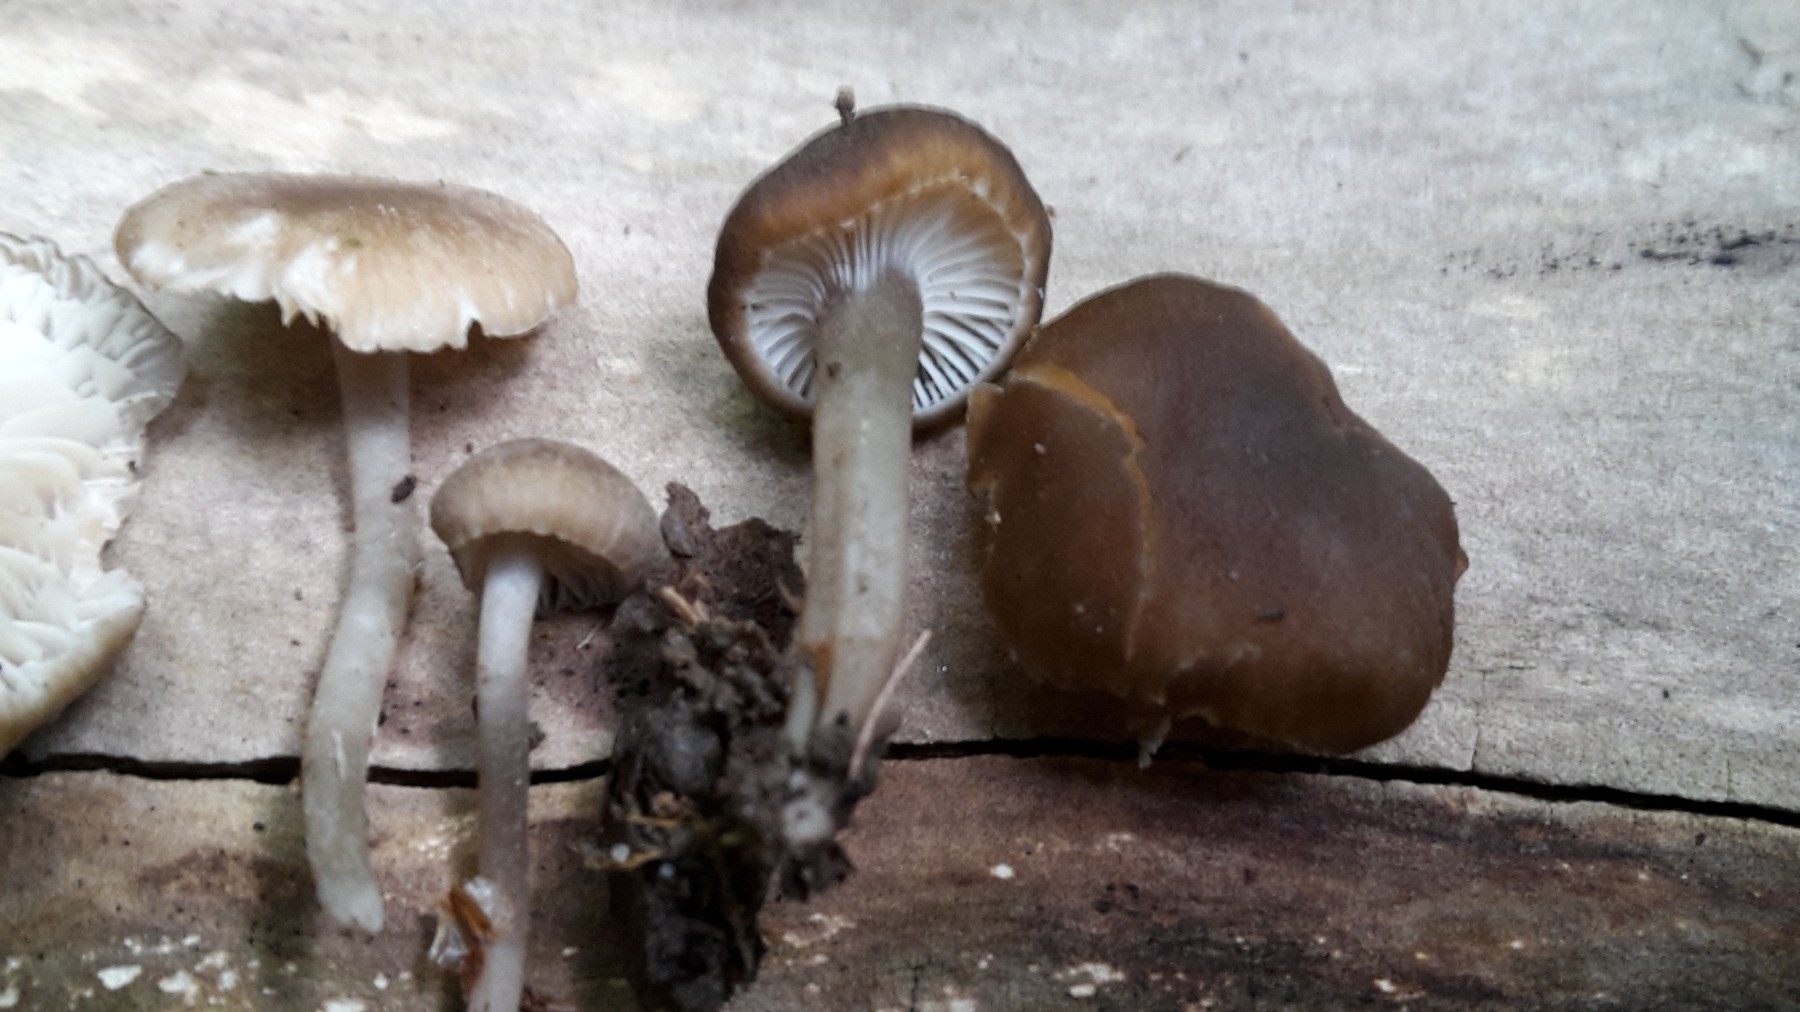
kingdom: Fungi
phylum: Basidiomycota
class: Agaricomycetes
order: Agaricales
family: Clavariaceae
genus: Camarophyllopsis
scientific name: Camarophyllopsis atrovelutina
